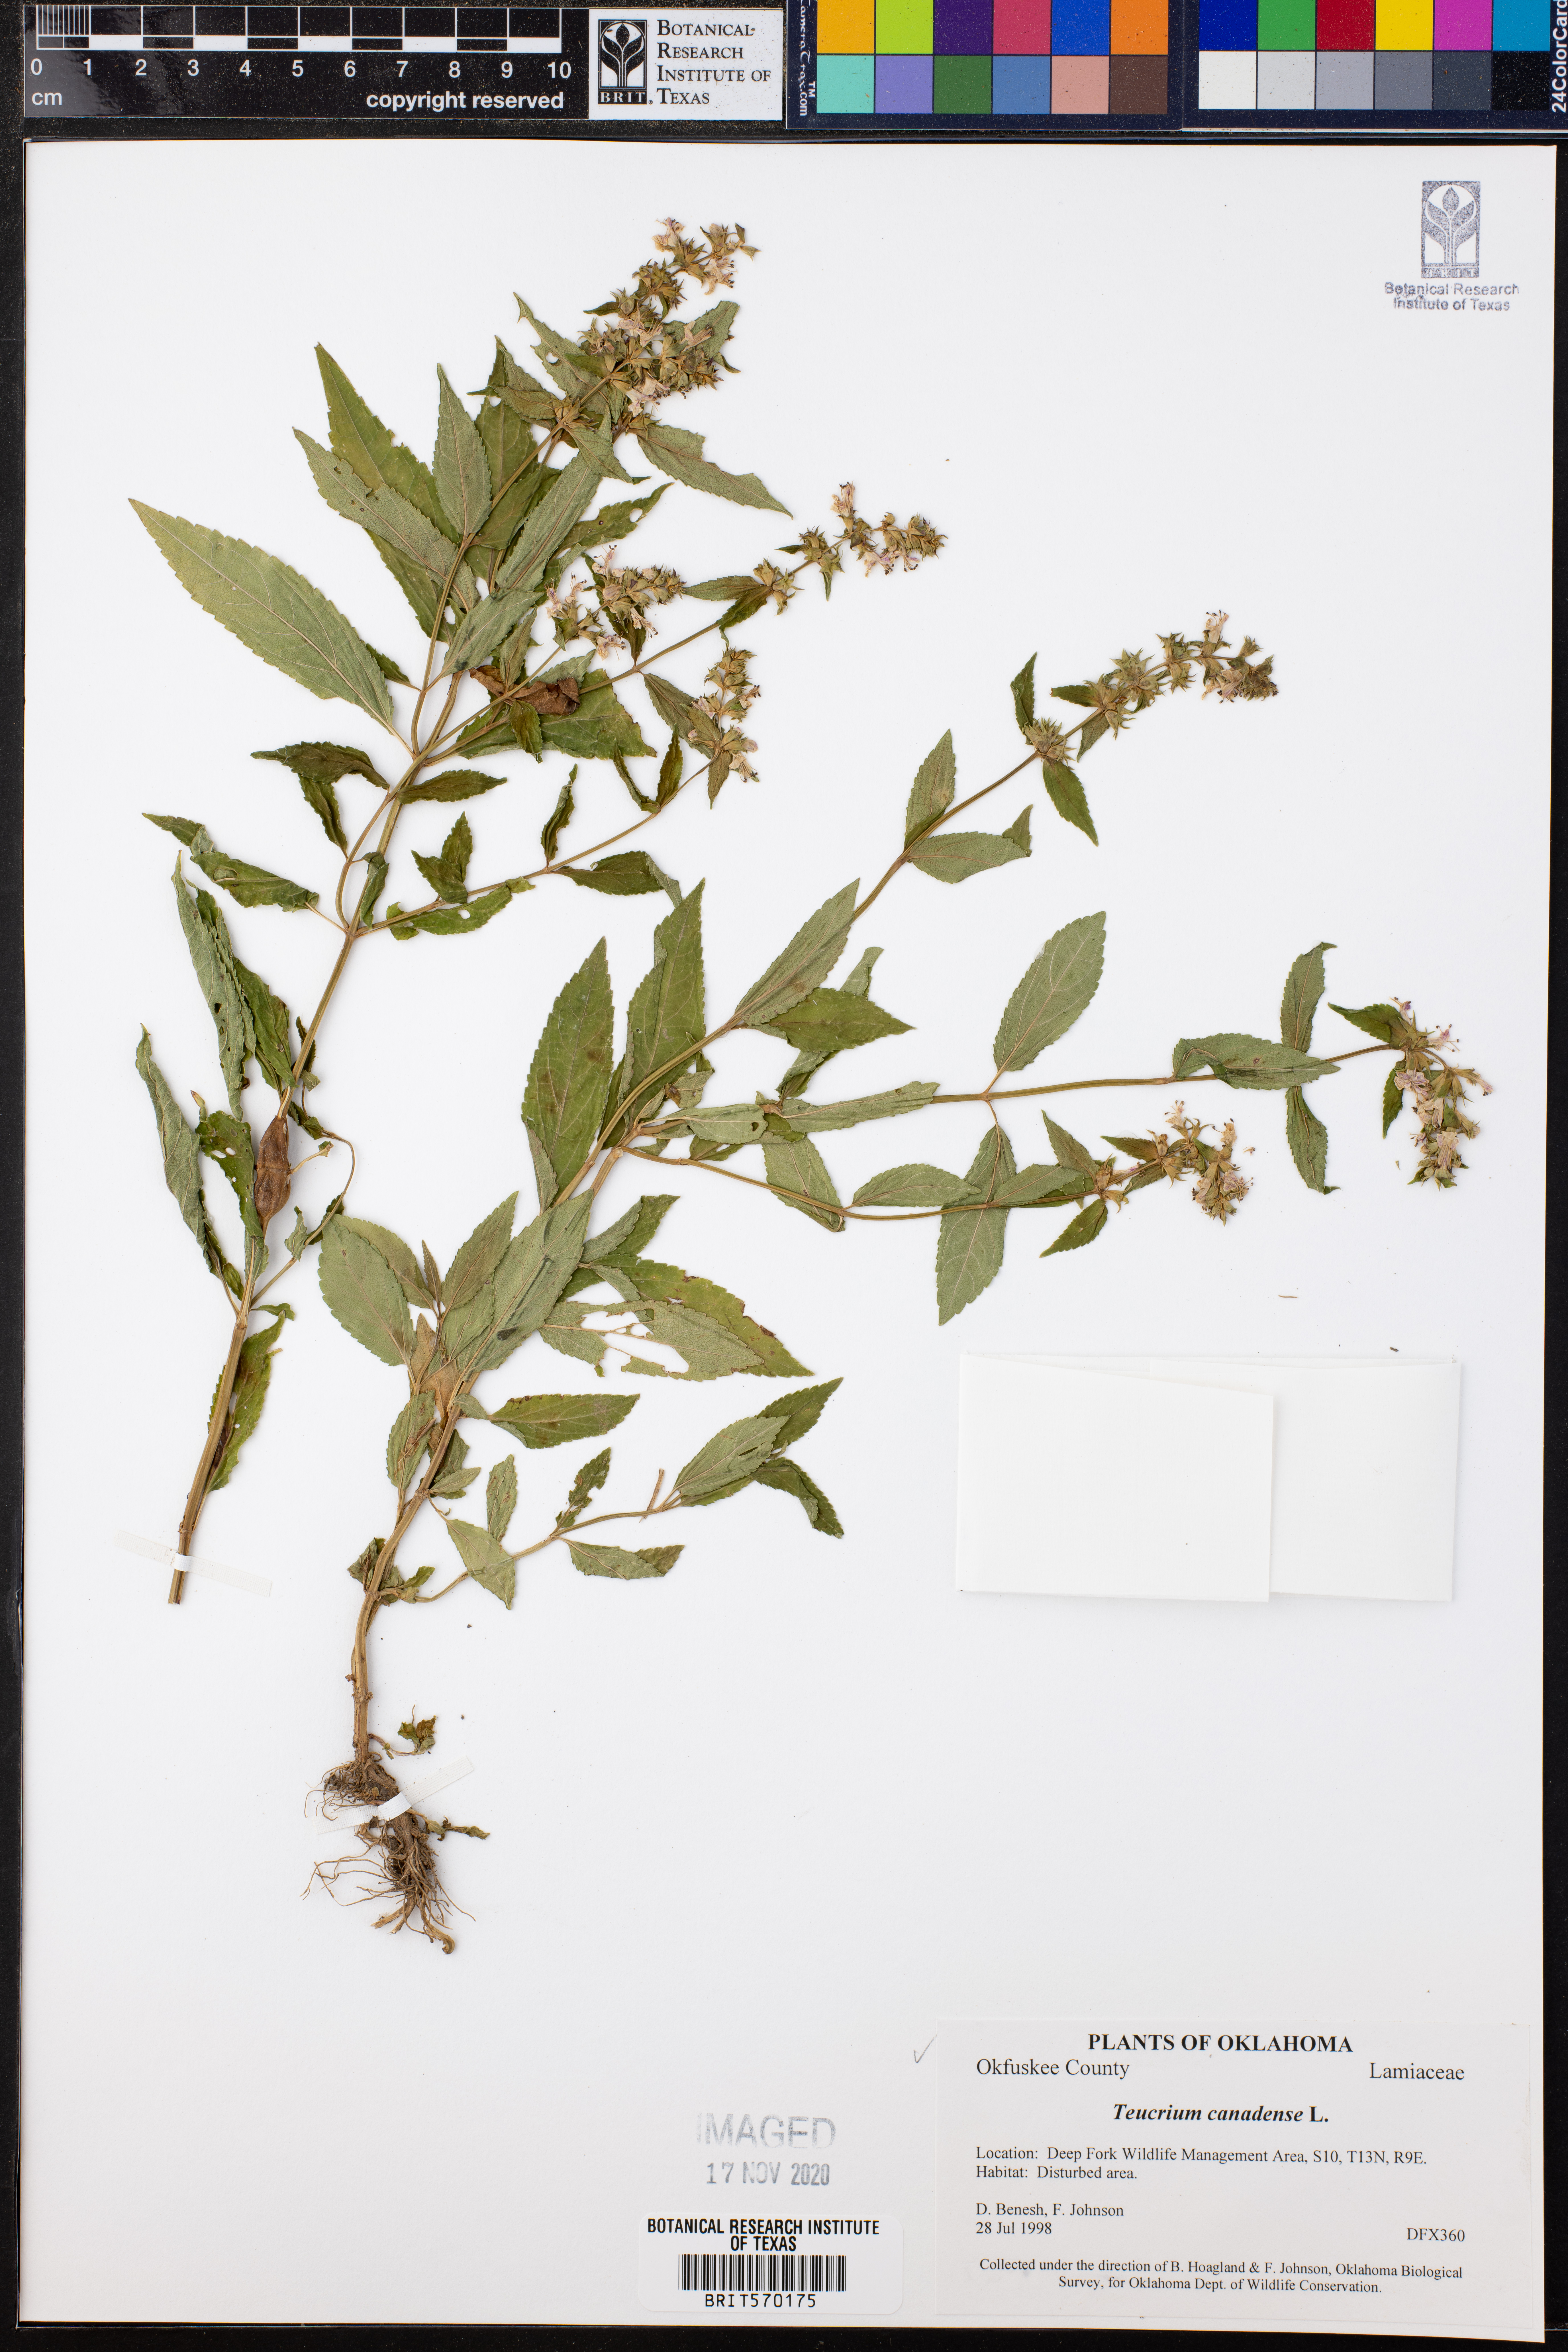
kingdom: Plantae
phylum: Tracheophyta
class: Magnoliopsida
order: Lamiales
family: Lamiaceae
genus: Teucrium
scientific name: Teucrium canadense
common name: American germander
